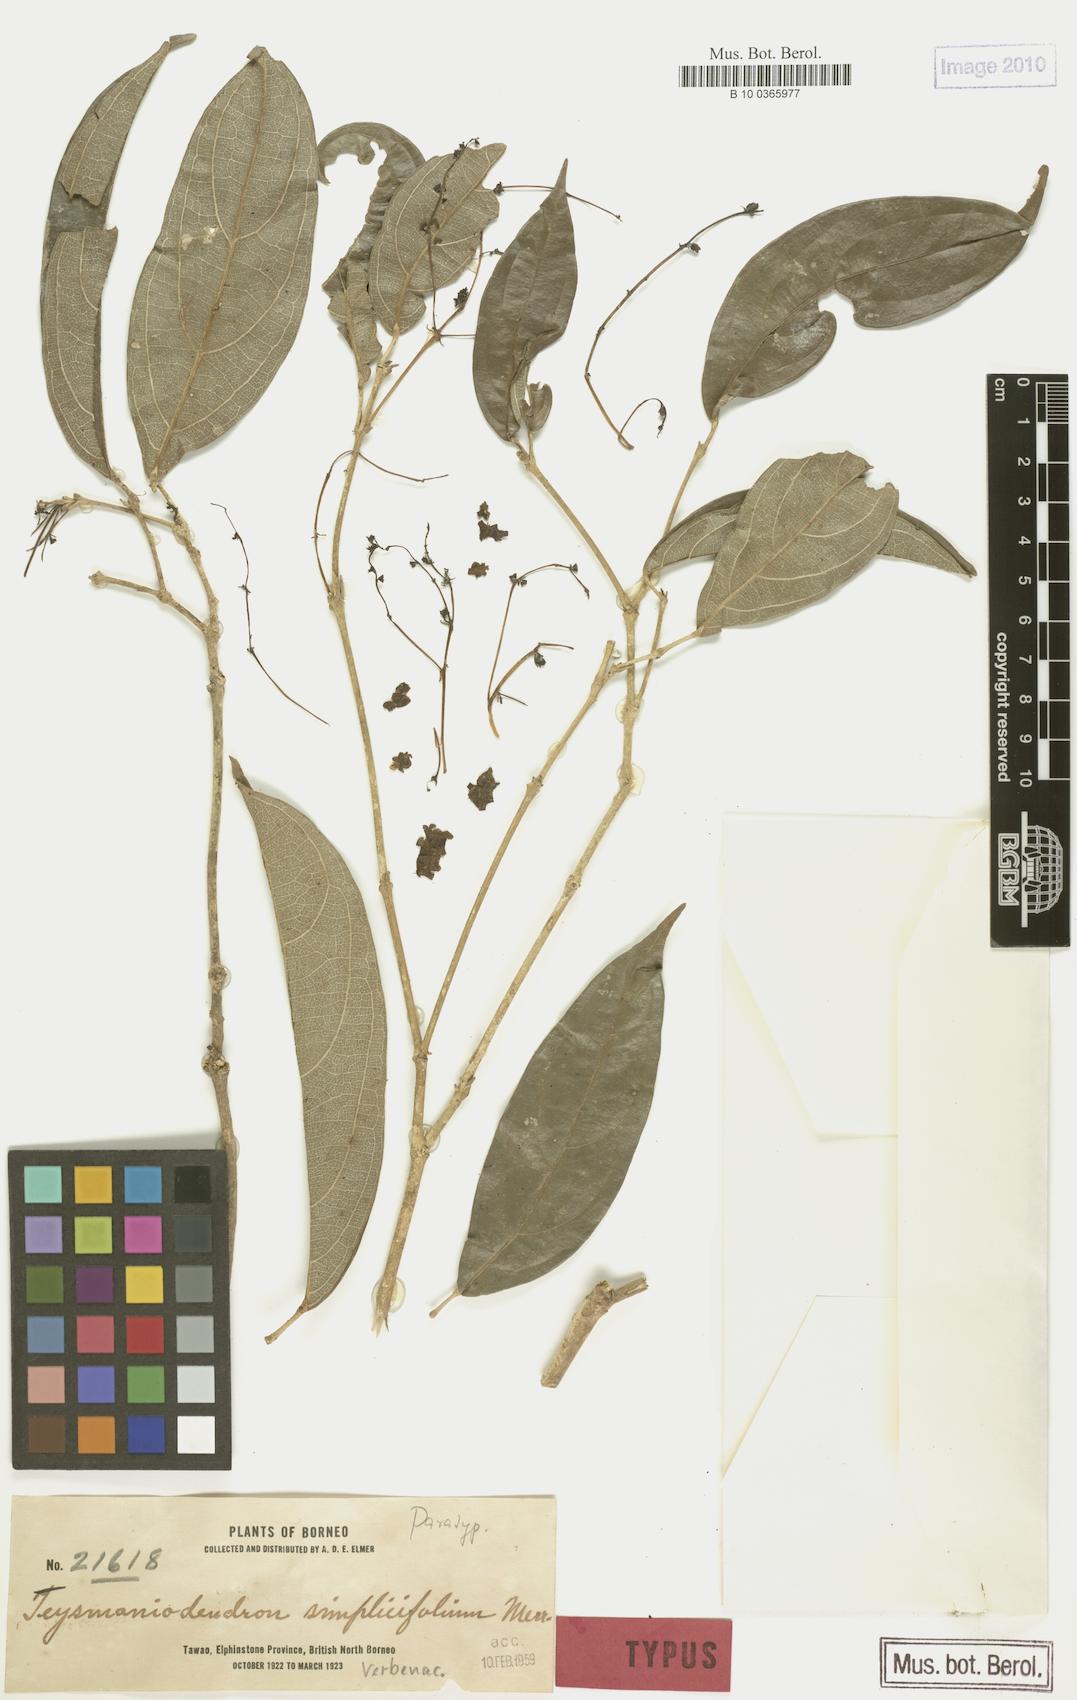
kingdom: Plantae
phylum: Tracheophyta
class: Magnoliopsida
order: Lamiales
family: Lamiaceae
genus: Teijsmanniodendron
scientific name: Teijsmanniodendron simplicifolium
